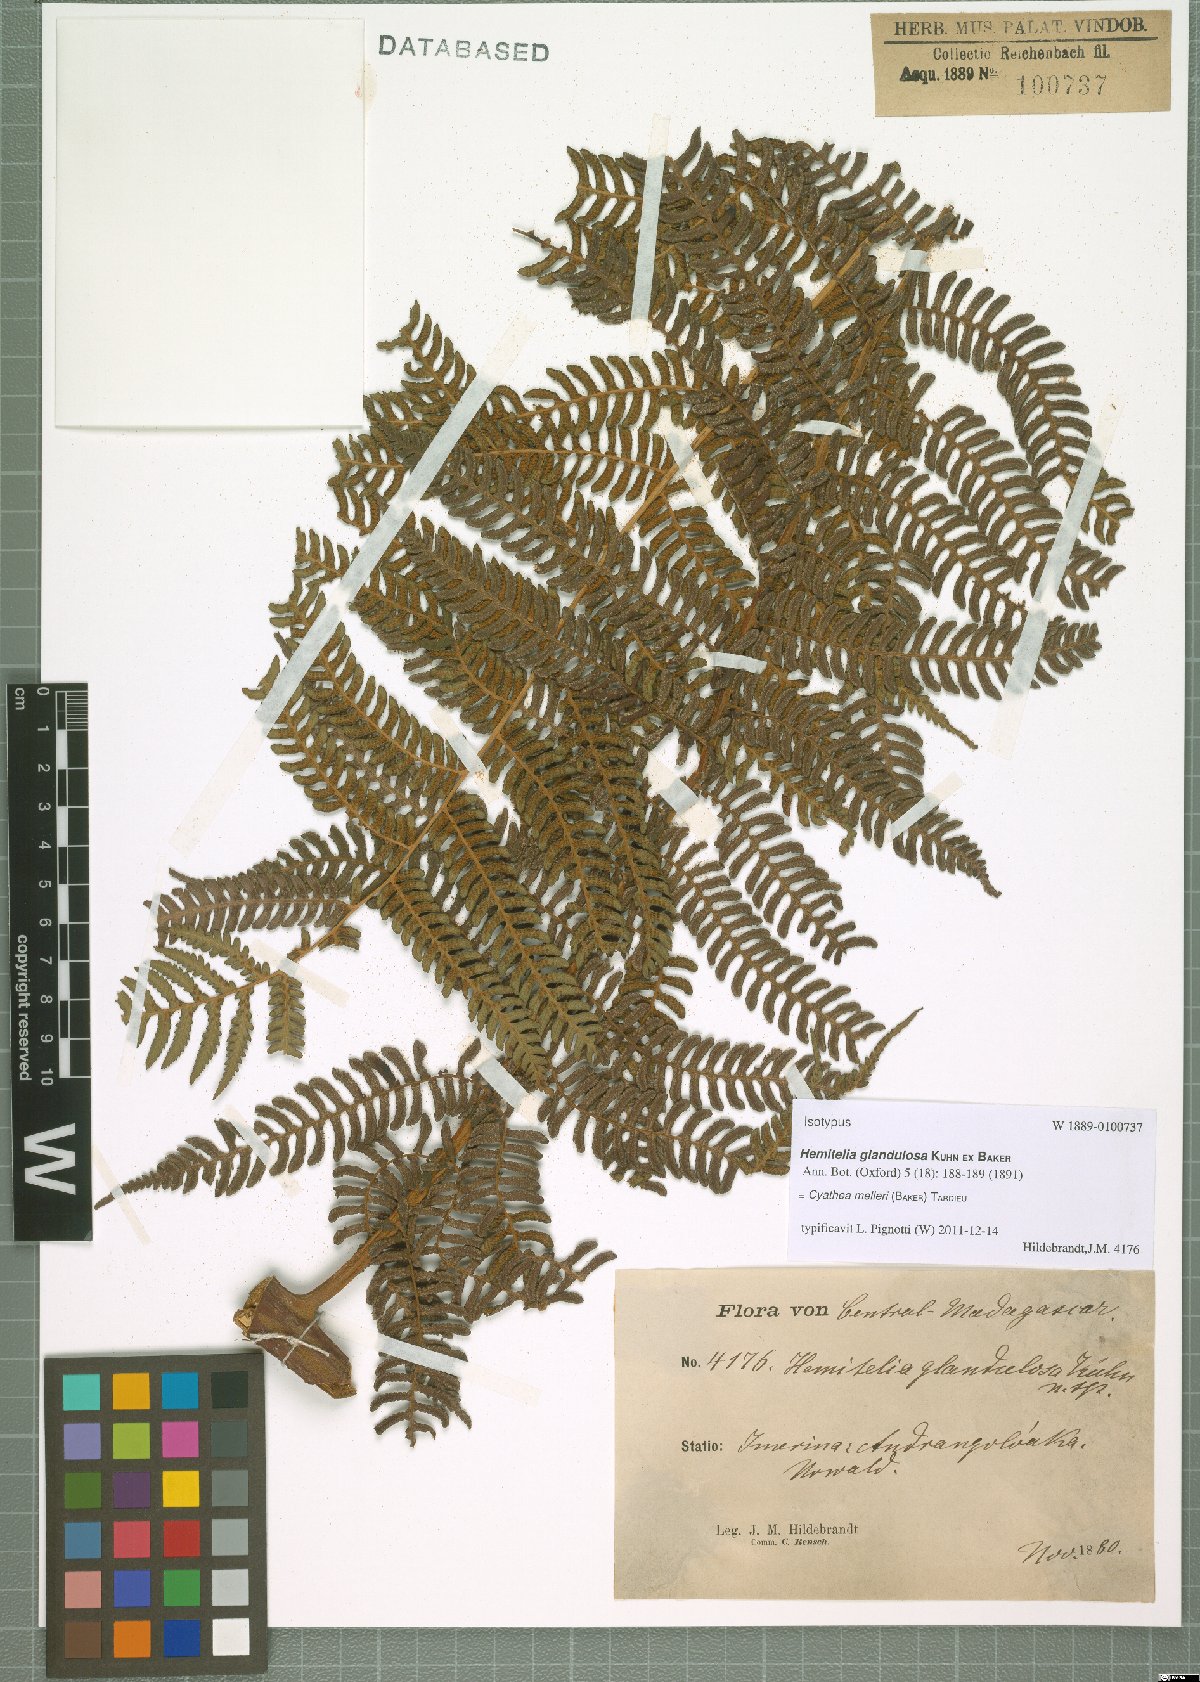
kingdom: Plantae
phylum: Tracheophyta
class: Polypodiopsida
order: Cyatheales
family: Cyatheaceae
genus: Alsophila
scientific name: Alsophila melleri
